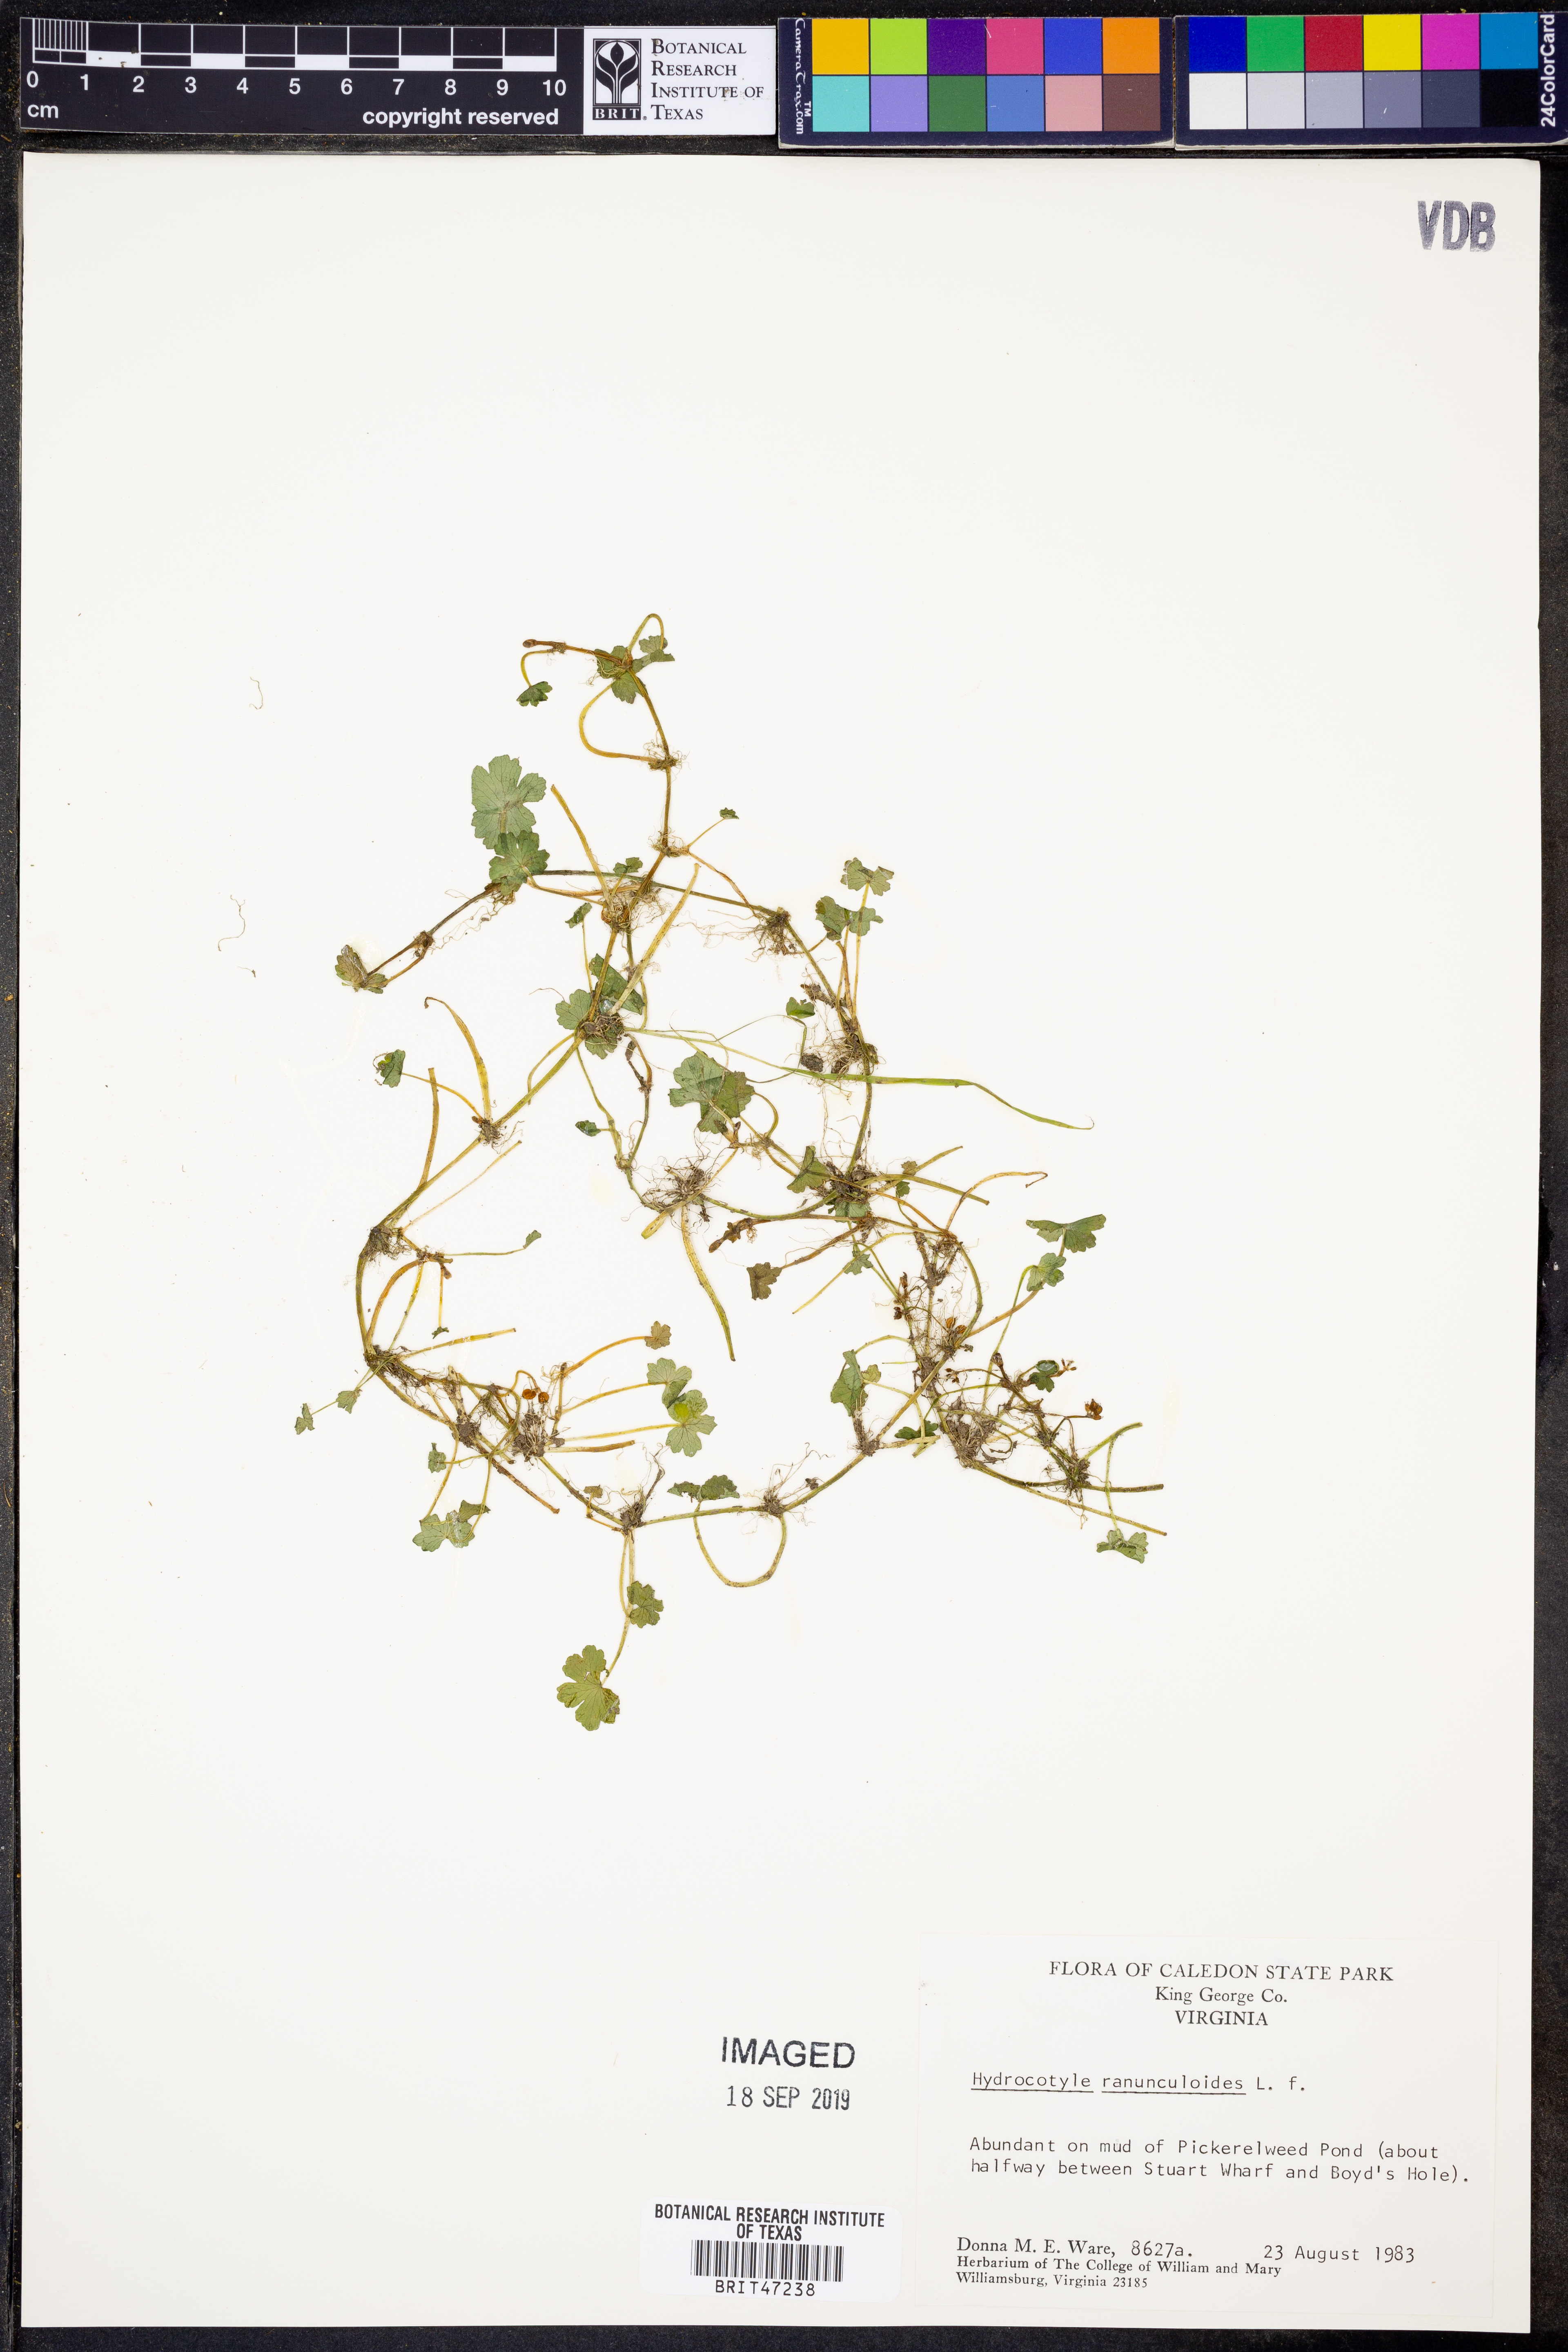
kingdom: Plantae
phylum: Tracheophyta
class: Magnoliopsida
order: Apiales
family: Araliaceae
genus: Hydrocotyle
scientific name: Hydrocotyle ranunculoides
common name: Floating pennywort
